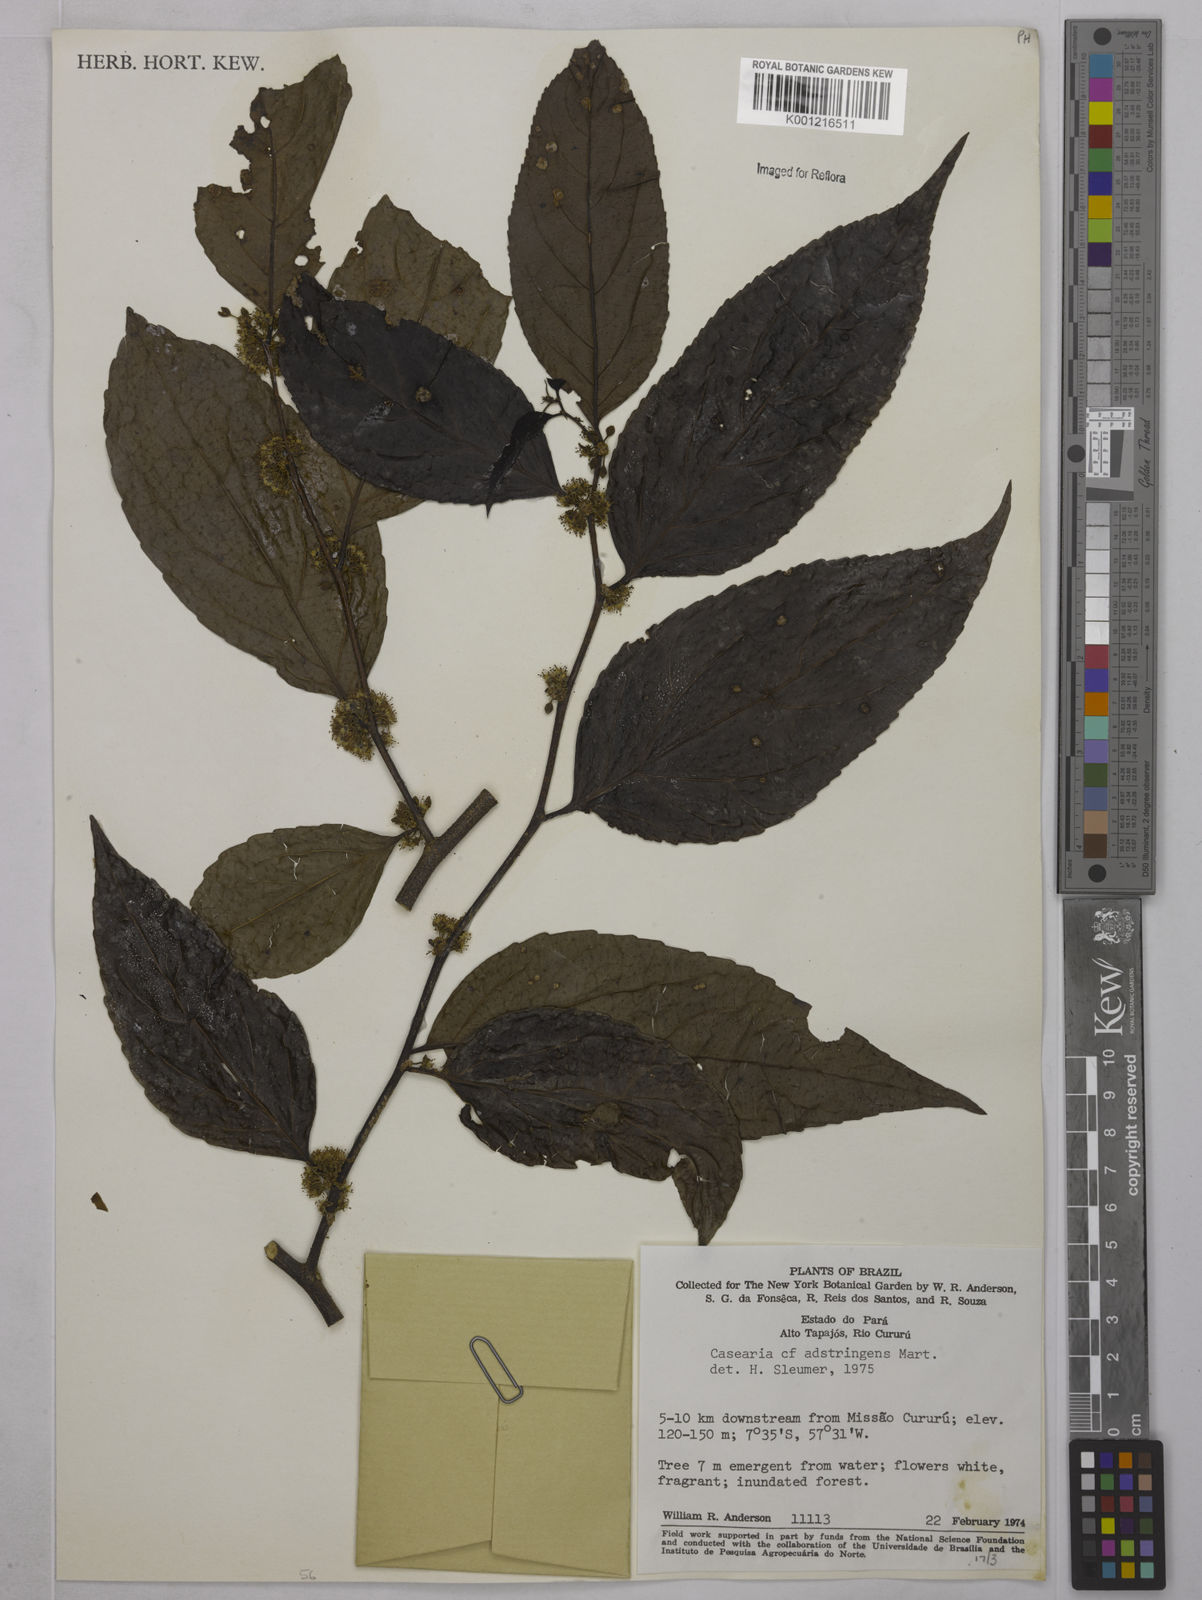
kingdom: Plantae
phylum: Tracheophyta
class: Magnoliopsida
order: Malpighiales
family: Salicaceae
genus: Casearia
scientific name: Casearia decandra
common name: Crack open
